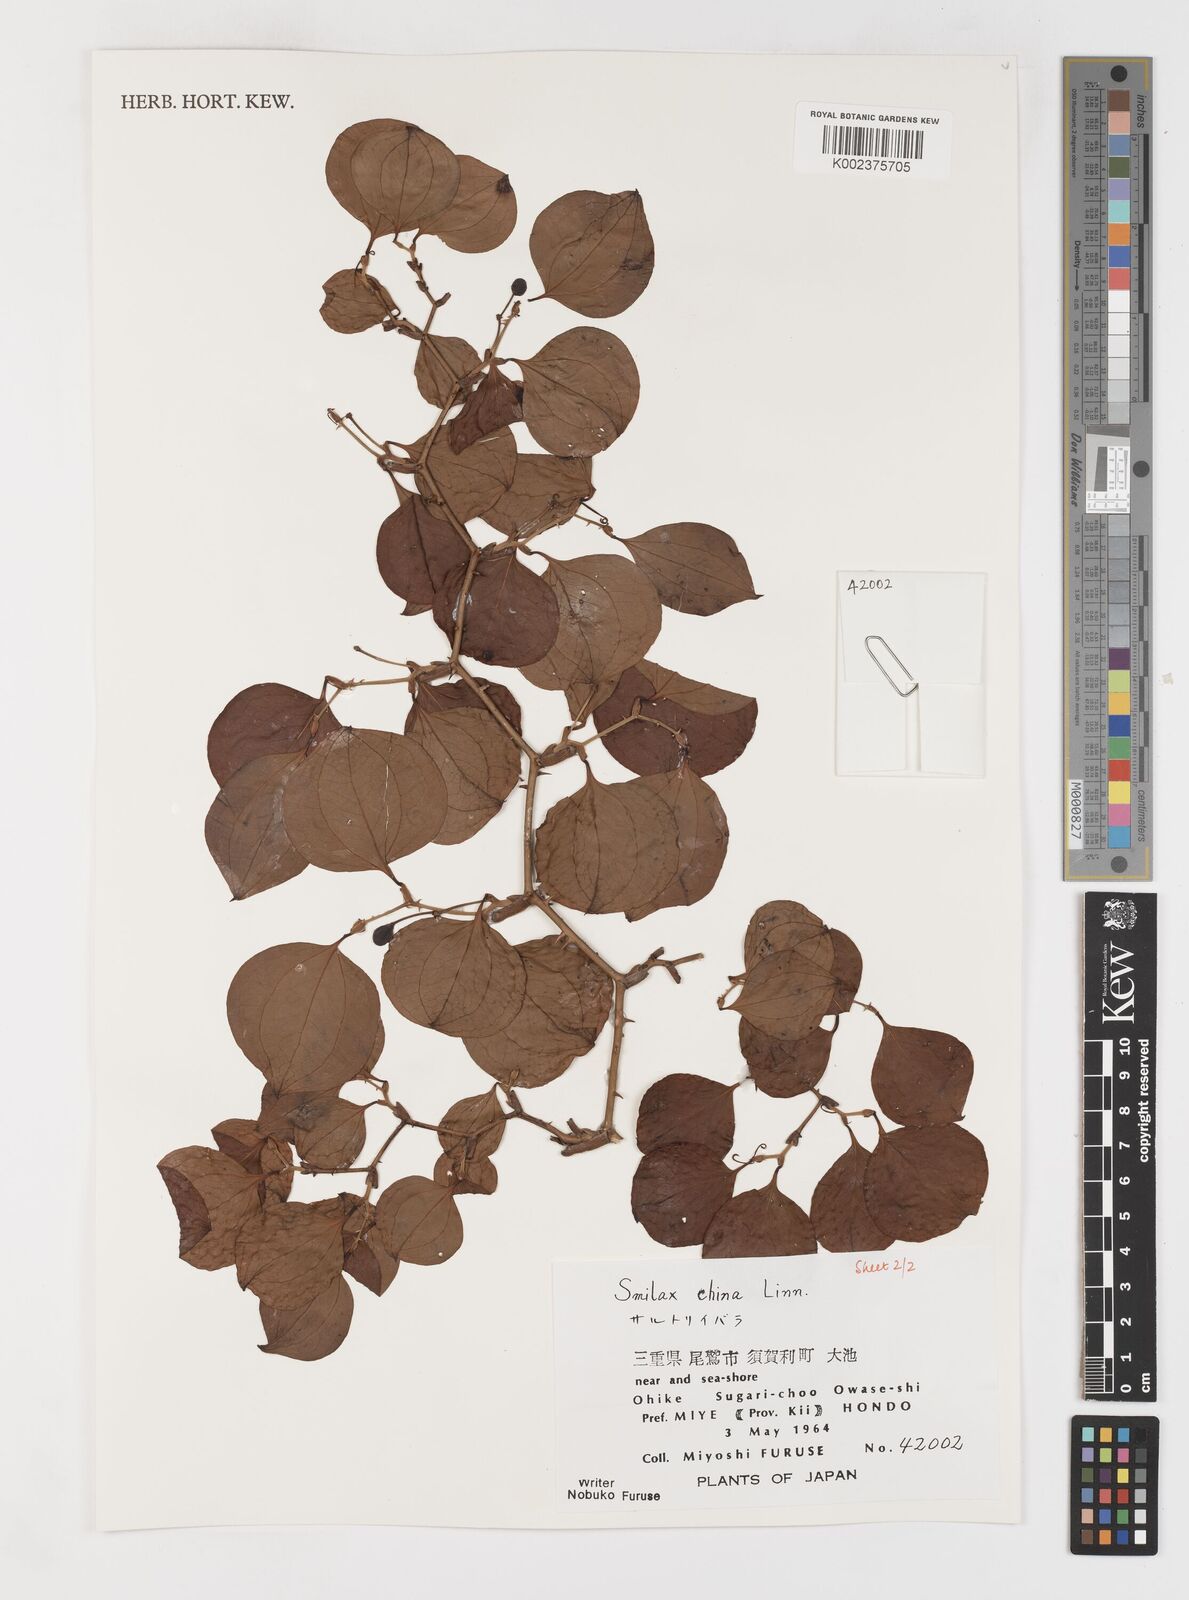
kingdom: Plantae
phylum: Tracheophyta
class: Liliopsida
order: Liliales
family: Smilacaceae
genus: Smilax
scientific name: Smilax china
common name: Chinaroot
